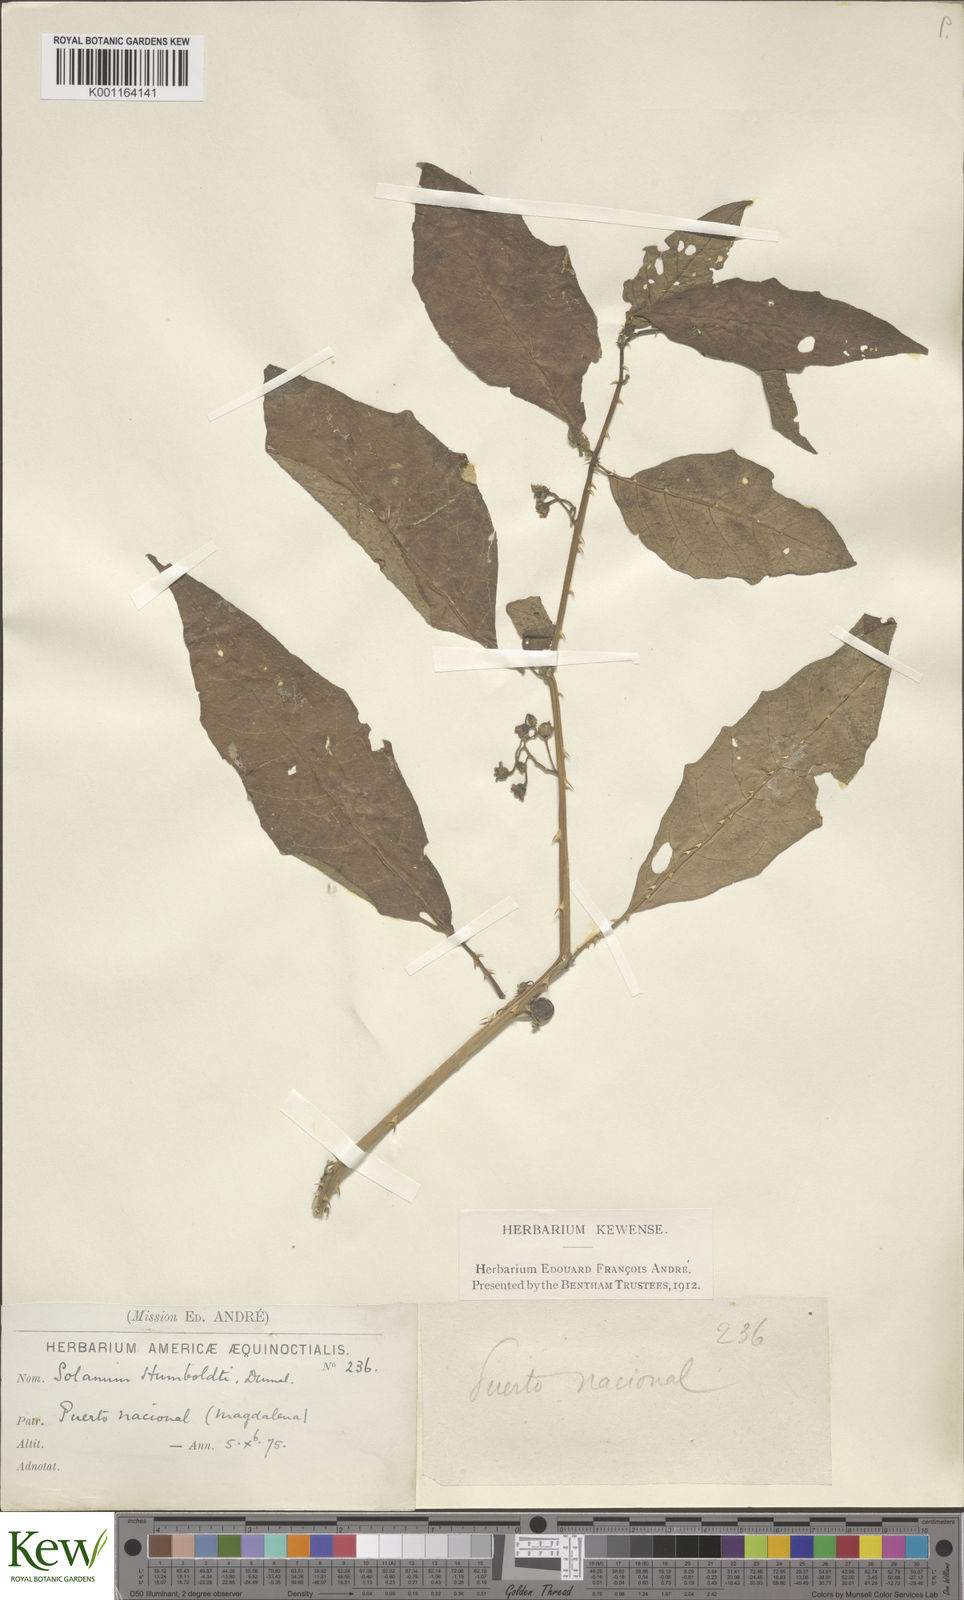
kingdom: Plantae
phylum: Tracheophyta
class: Magnoliopsida
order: Solanales
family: Solanaceae
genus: Solanum
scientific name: Solanum volubile
